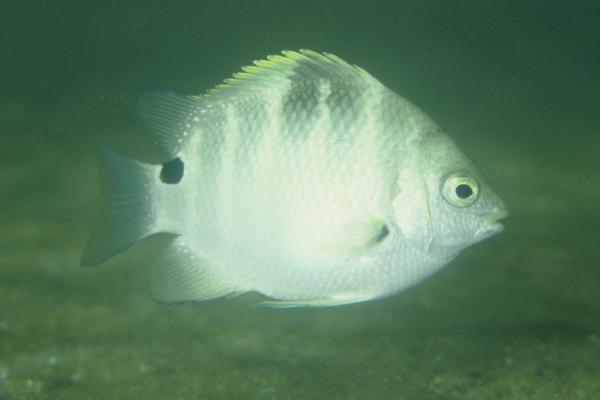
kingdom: Animalia
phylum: Chordata
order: Perciformes
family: Pomacentridae
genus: Abudefduf
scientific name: Abudefduf sordidus
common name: Blackspot sergeant
